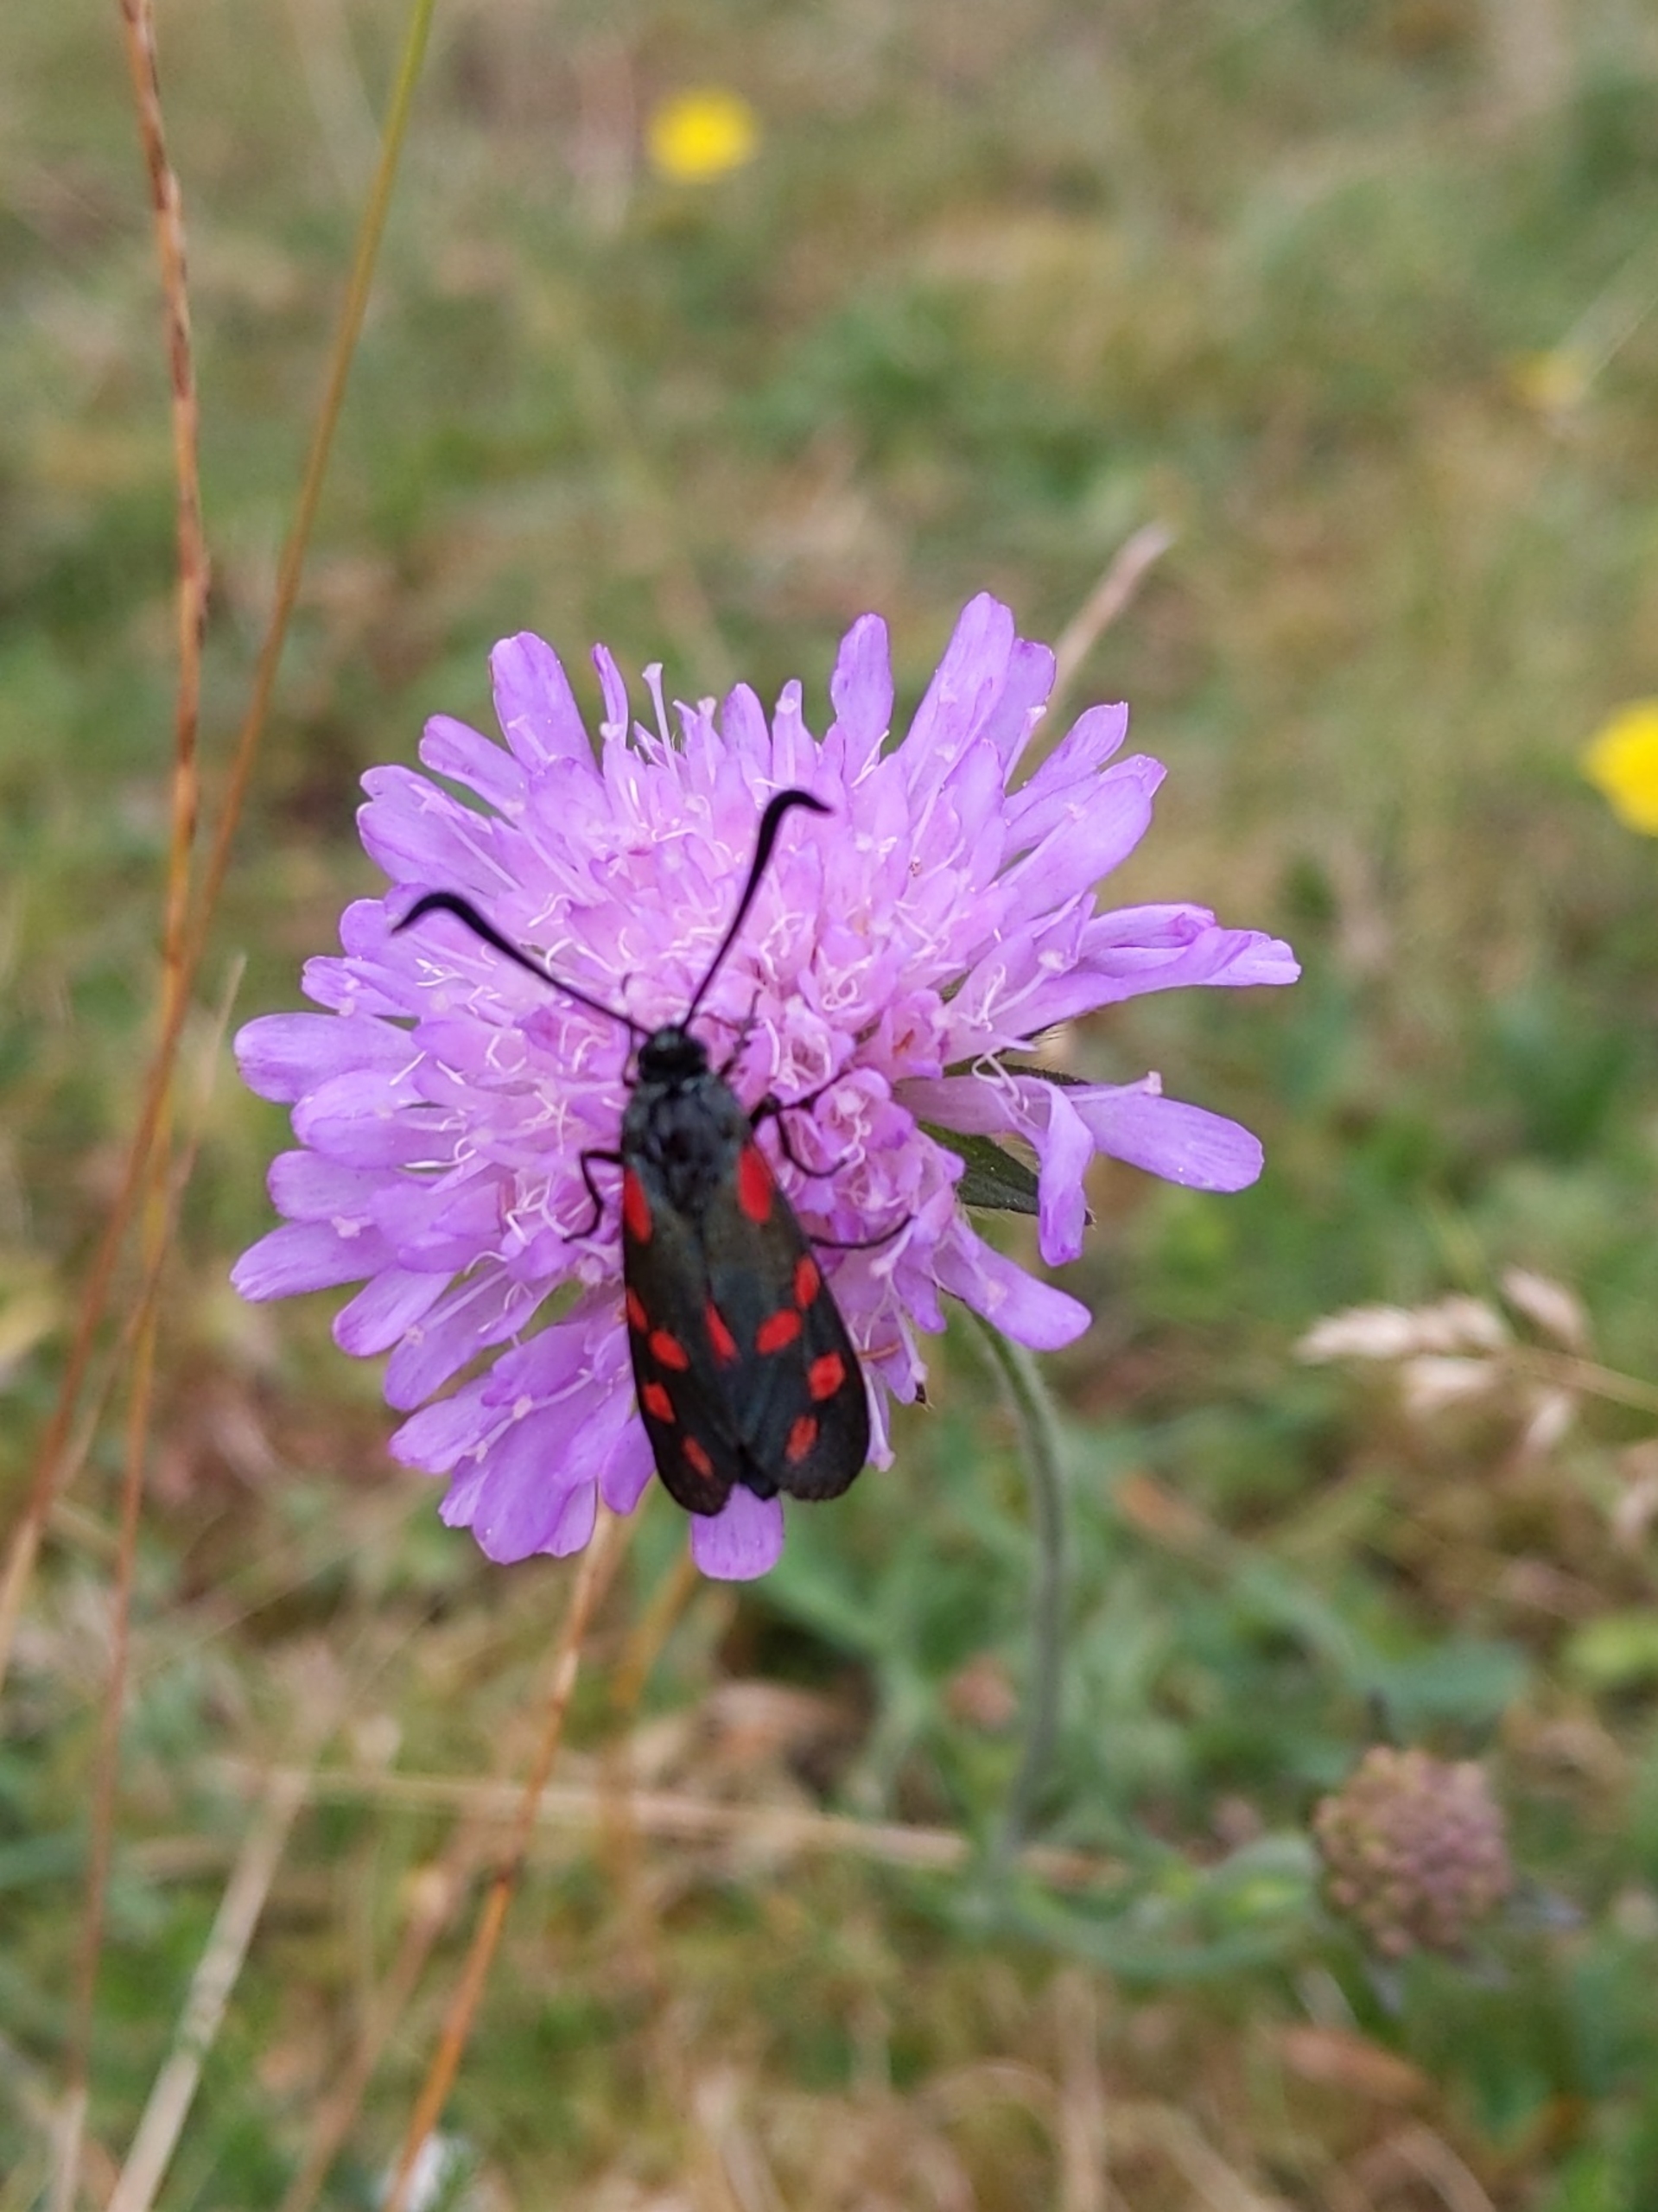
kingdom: Animalia
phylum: Arthropoda
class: Insecta
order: Lepidoptera
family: Zygaenidae
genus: Zygaena
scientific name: Zygaena filipendulae
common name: Seksplettet køllesværmer
